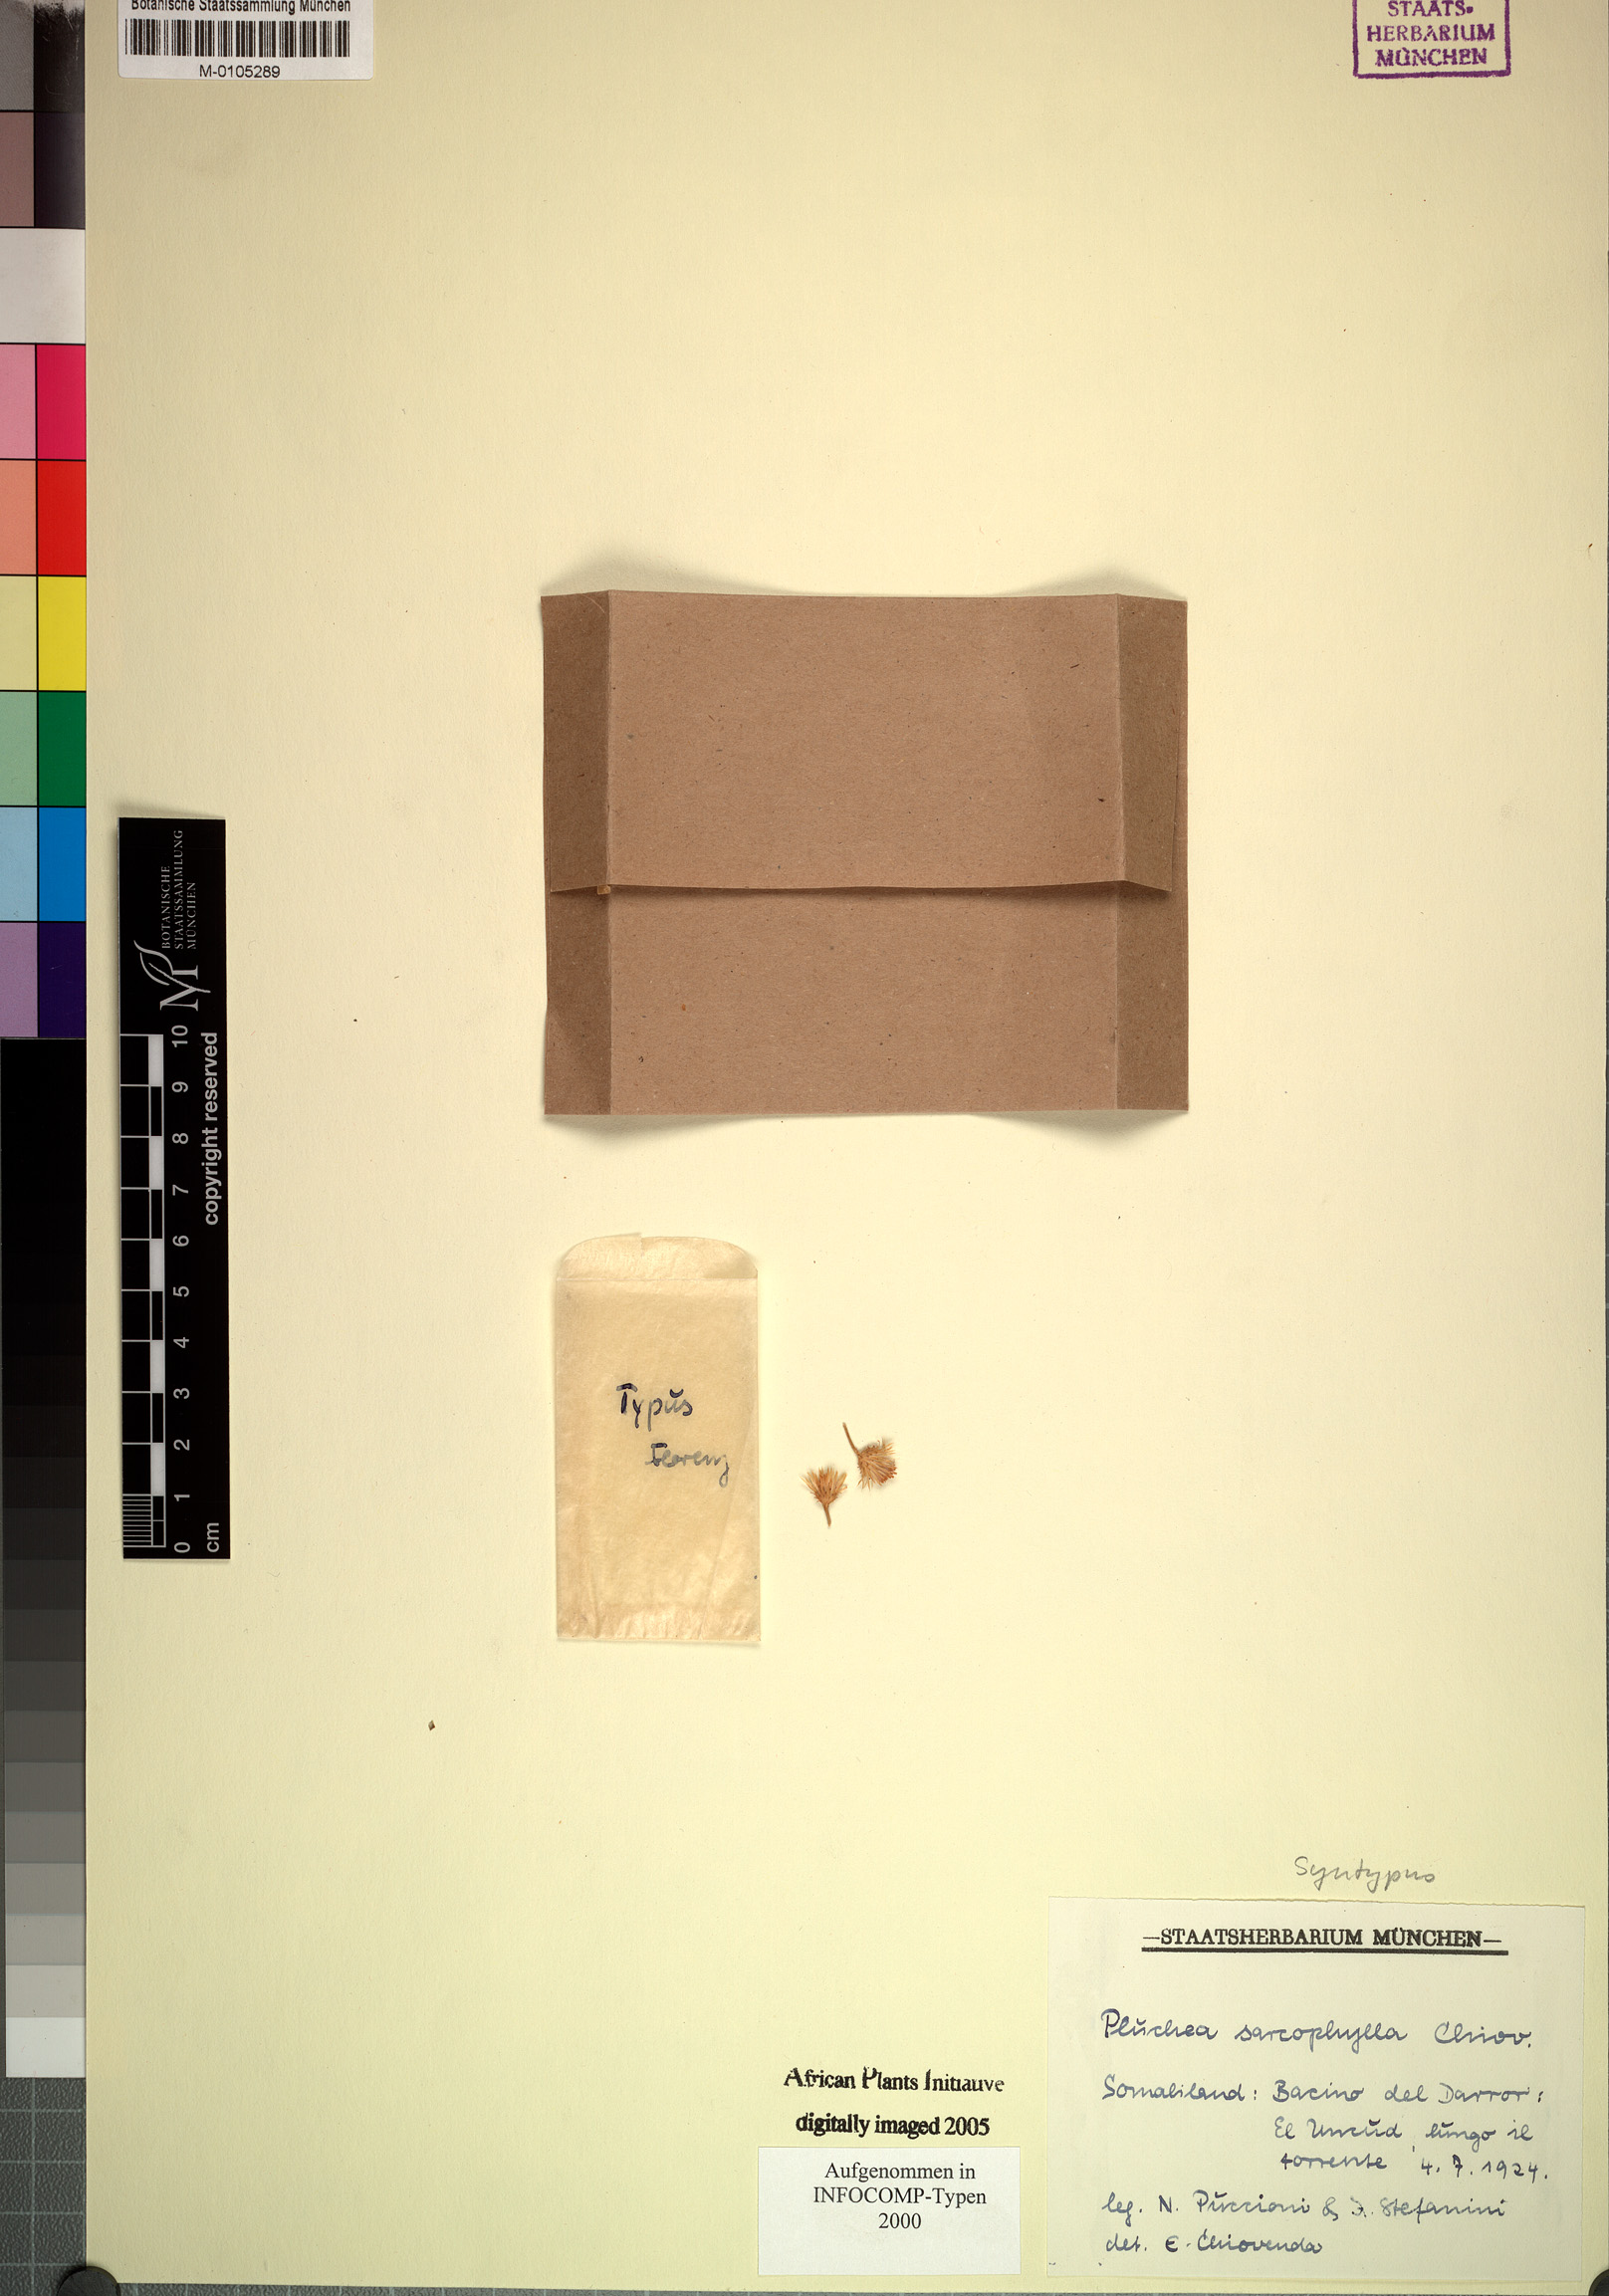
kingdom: Plantae
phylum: Tracheophyta
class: Magnoliopsida
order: Asterales
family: Asteraceae
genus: Pluchea
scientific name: Pluchea heterophylla
